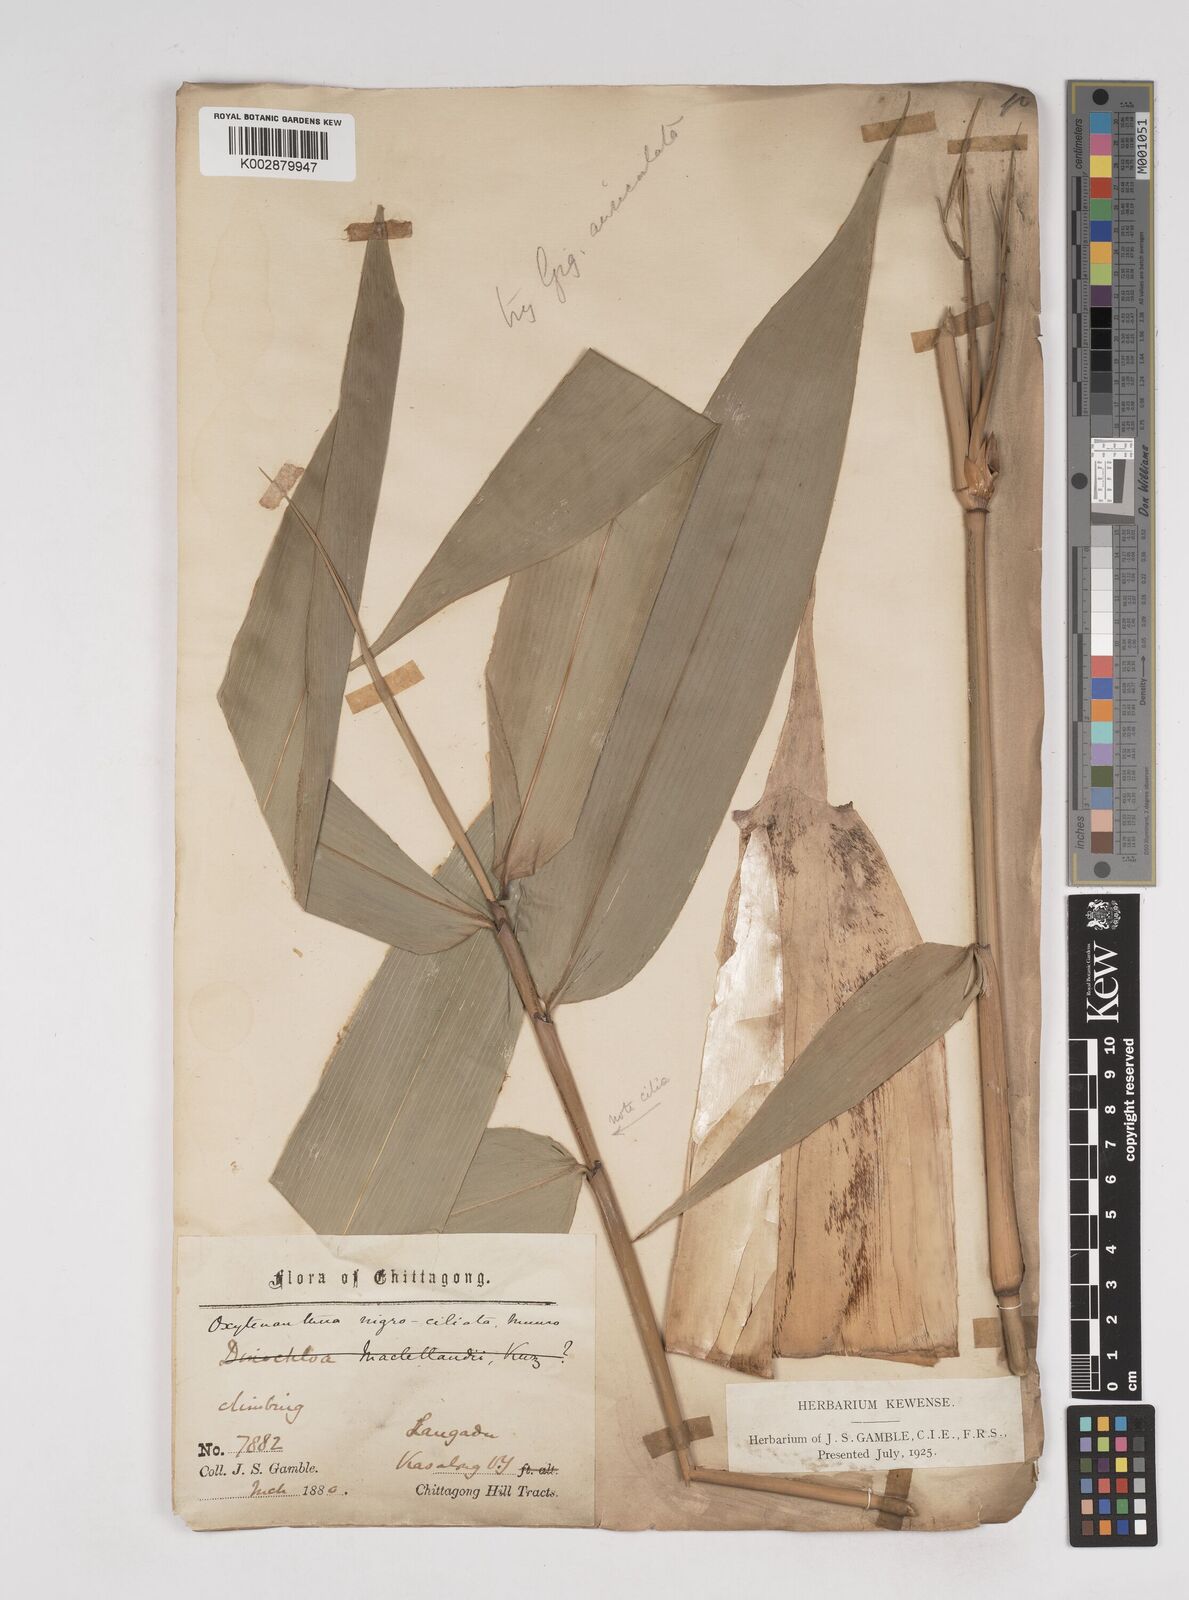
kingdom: Plantae
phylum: Tracheophyta
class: Liliopsida
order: Poales
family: Poaceae
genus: Gigantochloa
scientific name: Gigantochloa nigrociliata
